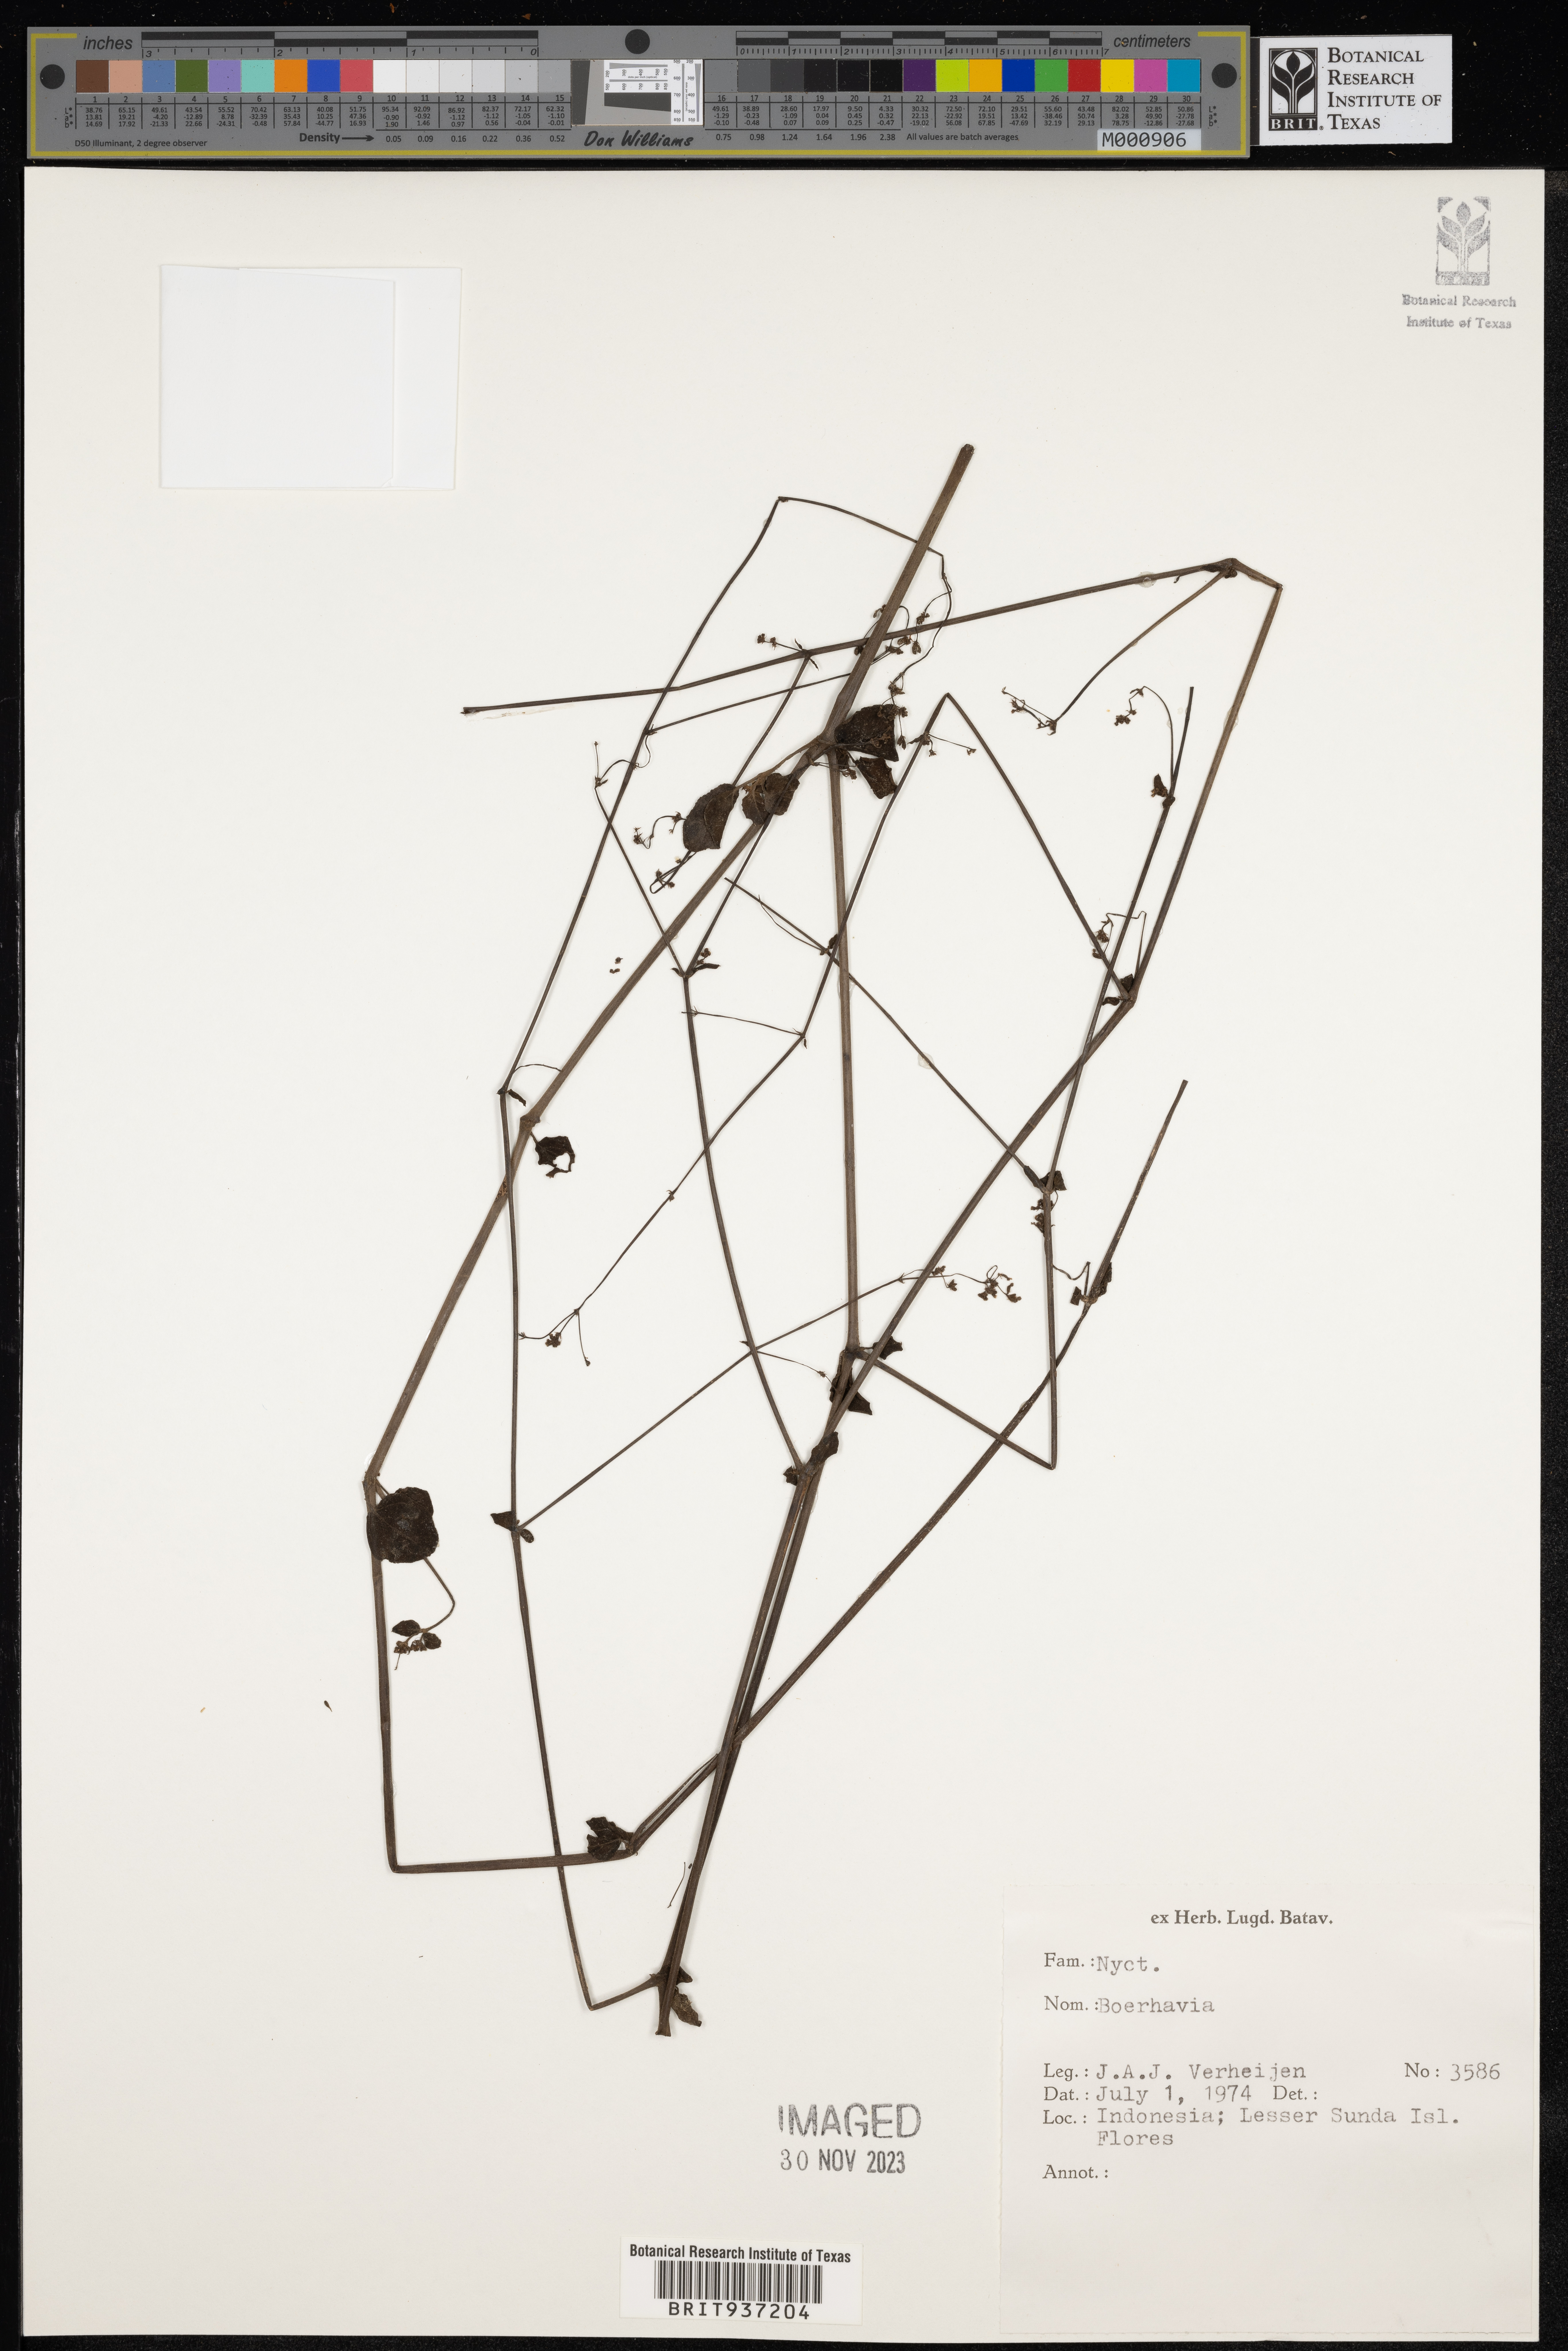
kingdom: Plantae
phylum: Tracheophyta
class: Magnoliopsida
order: Caryophyllales
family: Nyctaginaceae
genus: Boerhavia
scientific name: Boerhavia
